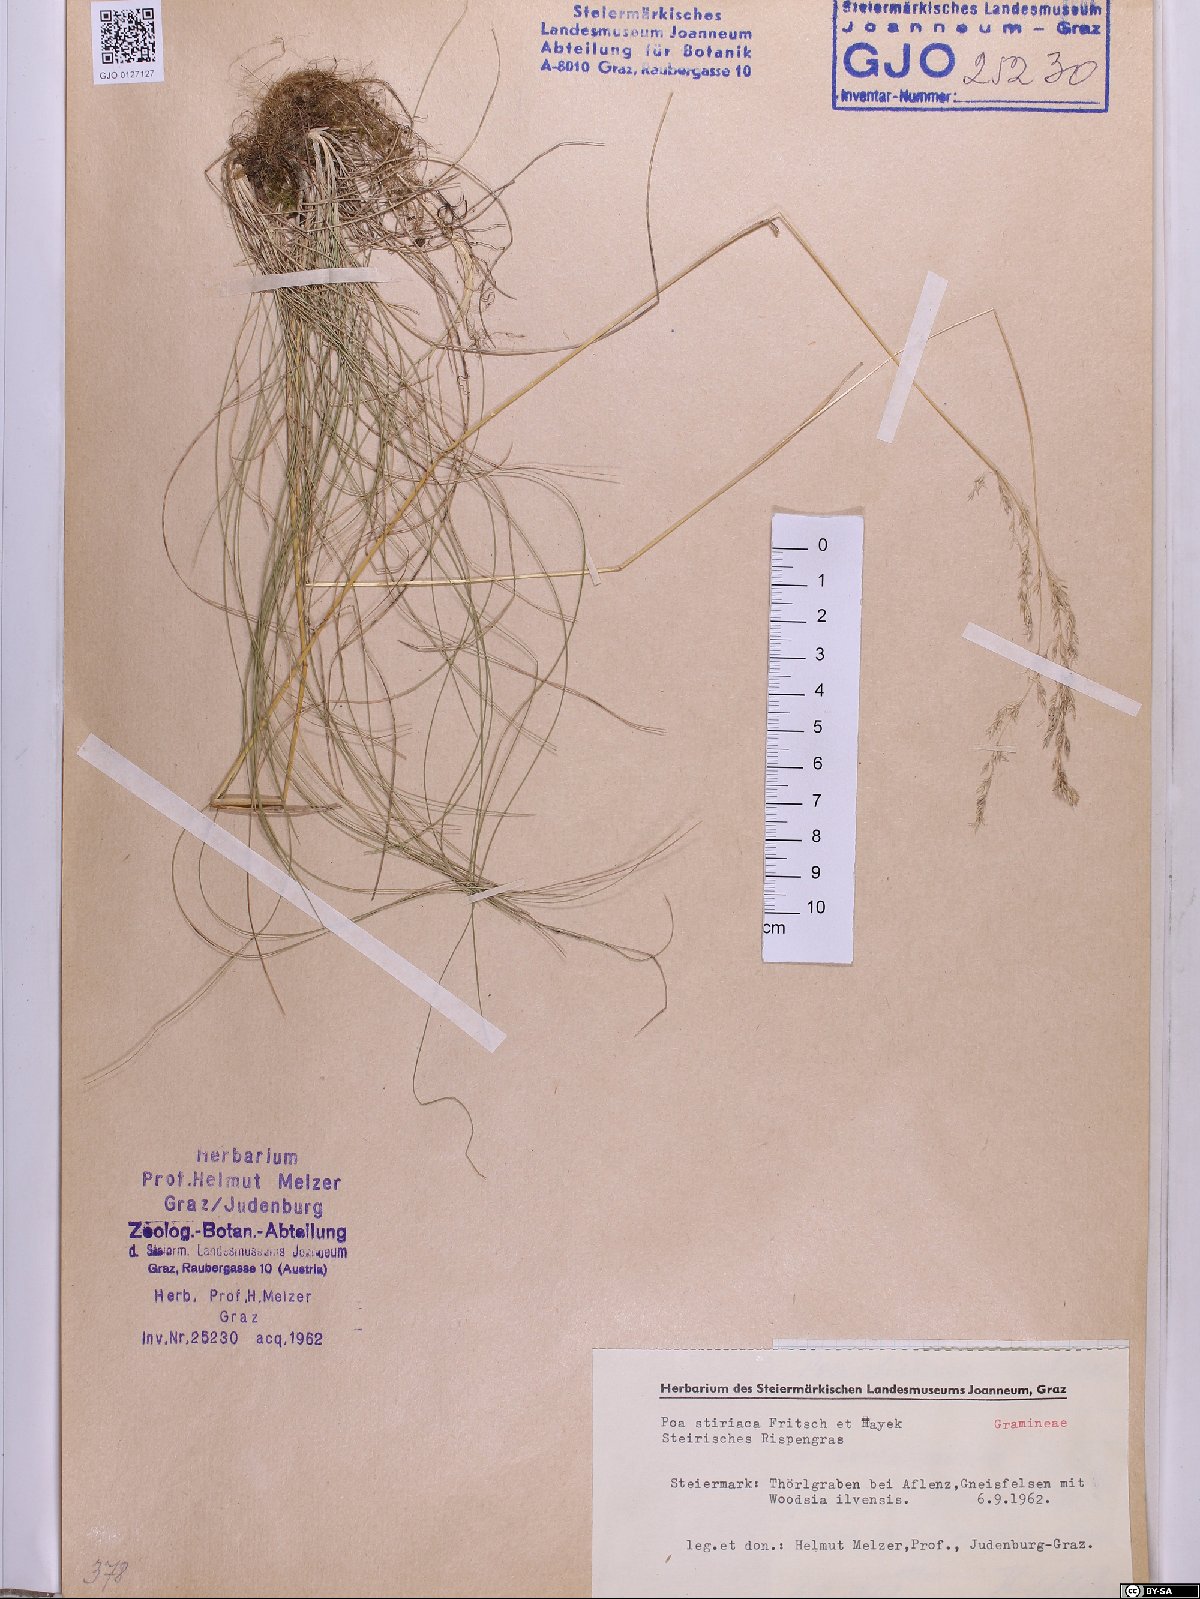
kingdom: Plantae
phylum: Tracheophyta
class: Liliopsida
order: Poales
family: Poaceae
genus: Poa
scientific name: Poa stiriaca
